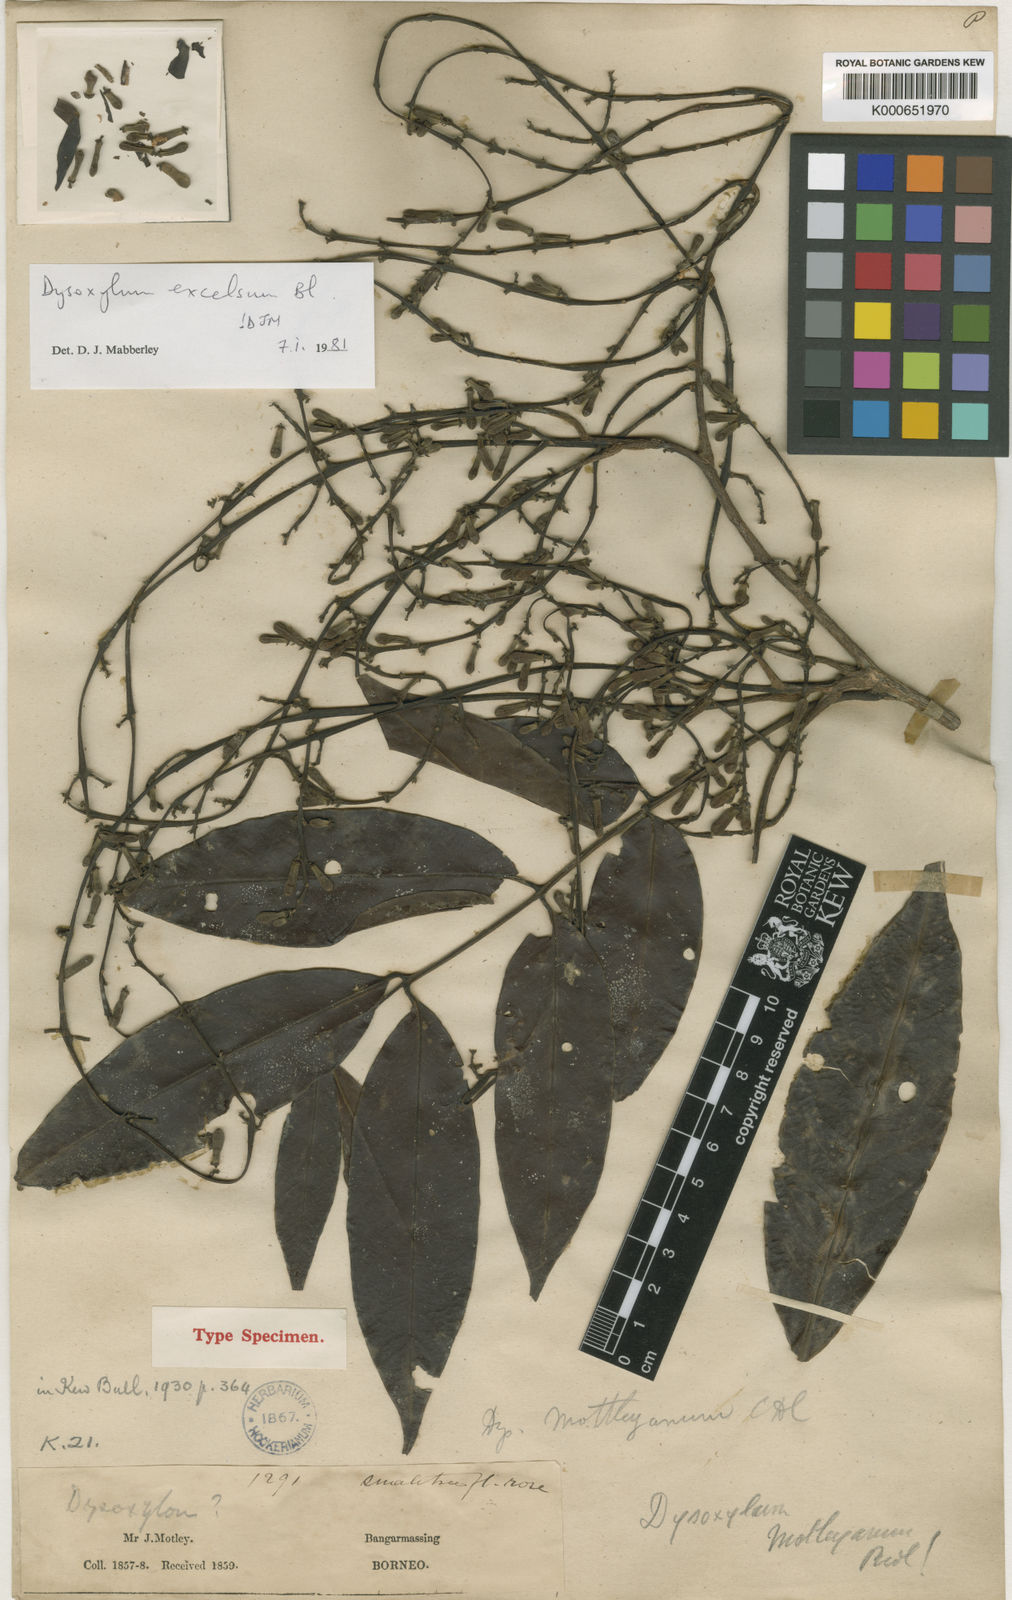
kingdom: Plantae
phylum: Tracheophyta
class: Magnoliopsida
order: Sapindales
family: Meliaceae
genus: Dysoxylum
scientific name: Dysoxylum excelsum
